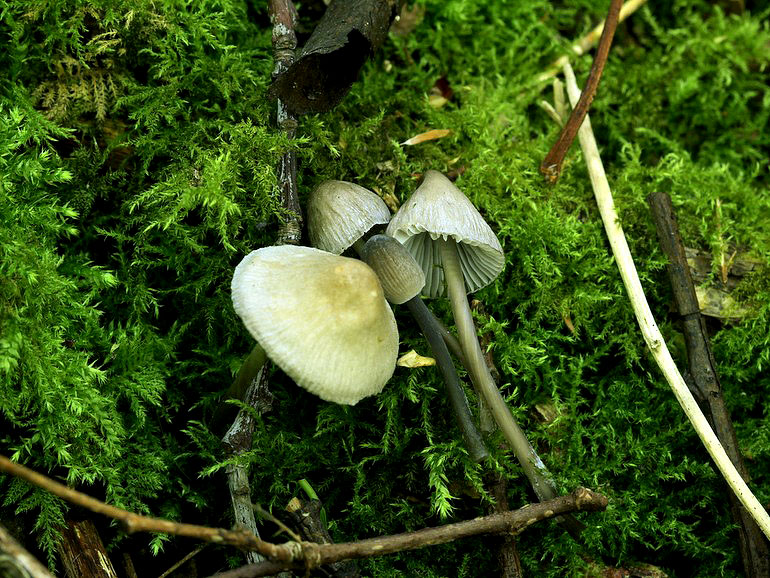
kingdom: Fungi
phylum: Basidiomycota
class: Agaricomycetes
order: Agaricales
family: Mycenaceae
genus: Mycena
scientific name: Mycena abramsii
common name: sommer-huesvamp
